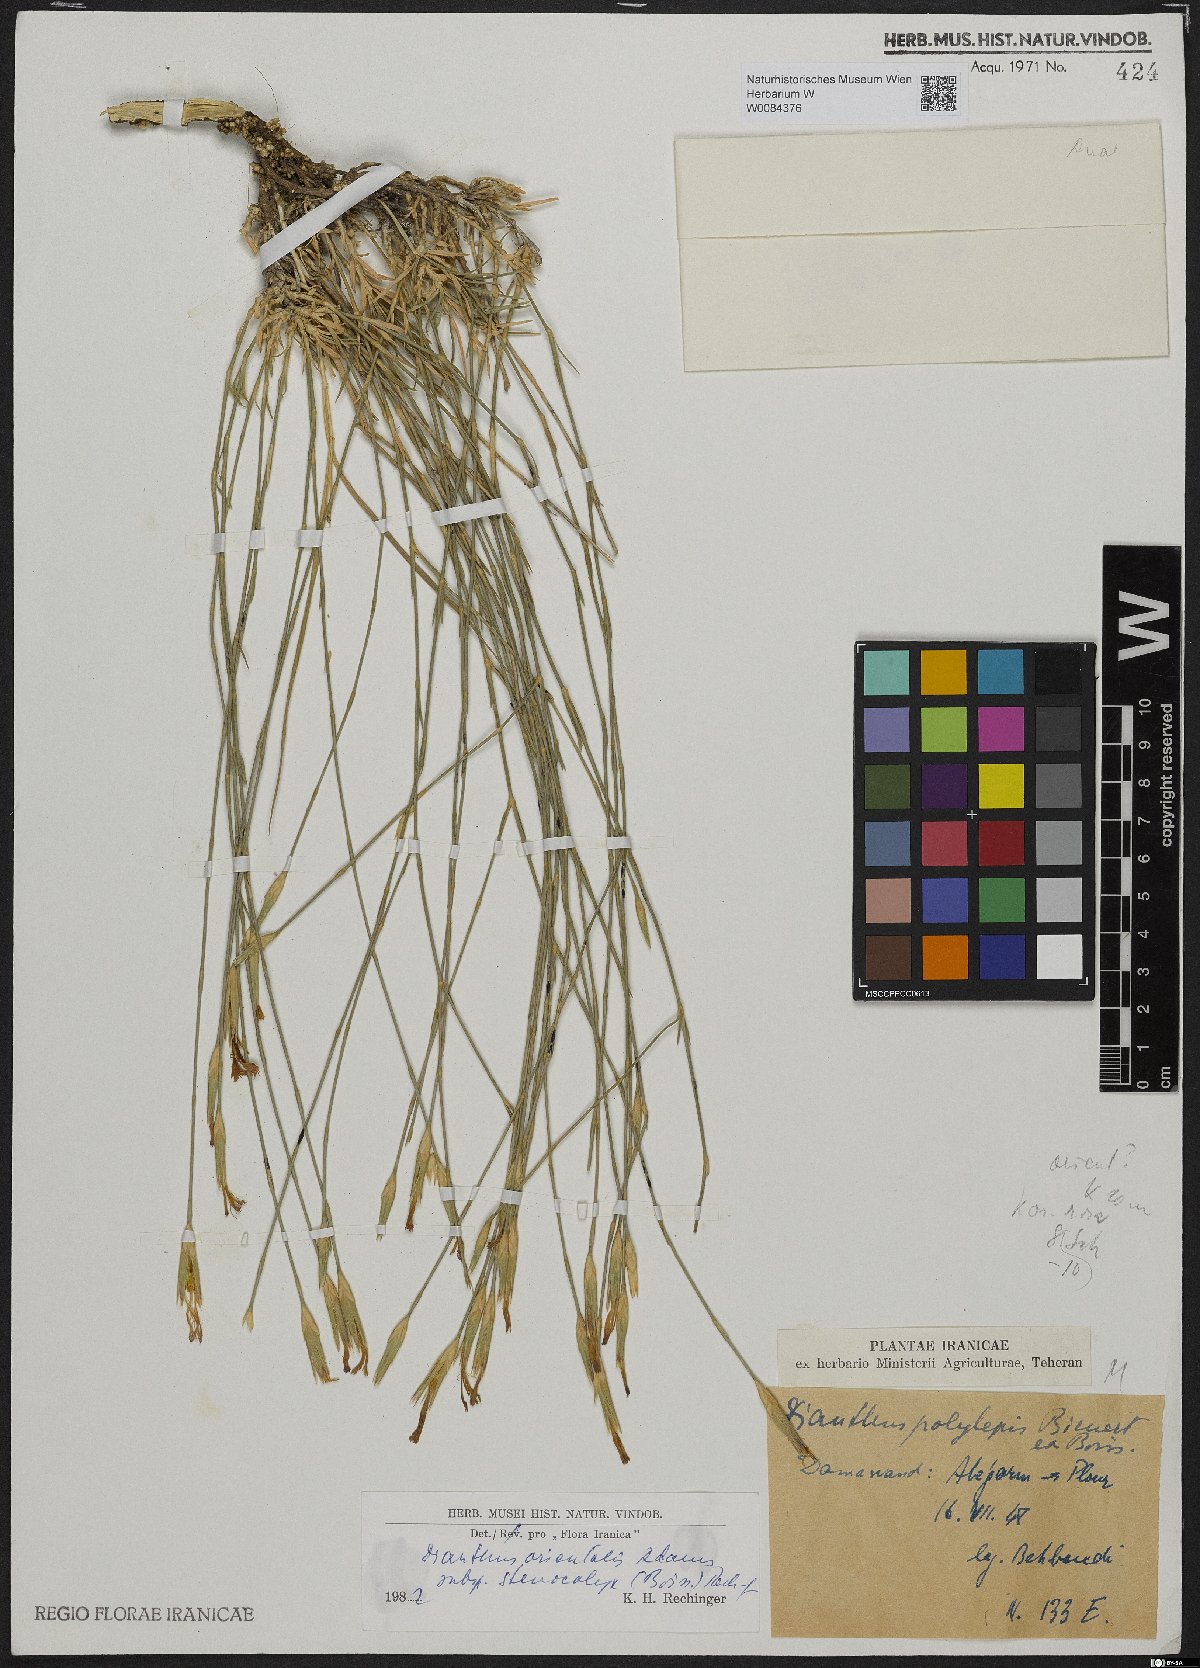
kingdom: Plantae
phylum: Tracheophyta
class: Magnoliopsida
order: Caryophyllales
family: Caryophyllaceae
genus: Dianthus
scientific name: Dianthus orientalis
